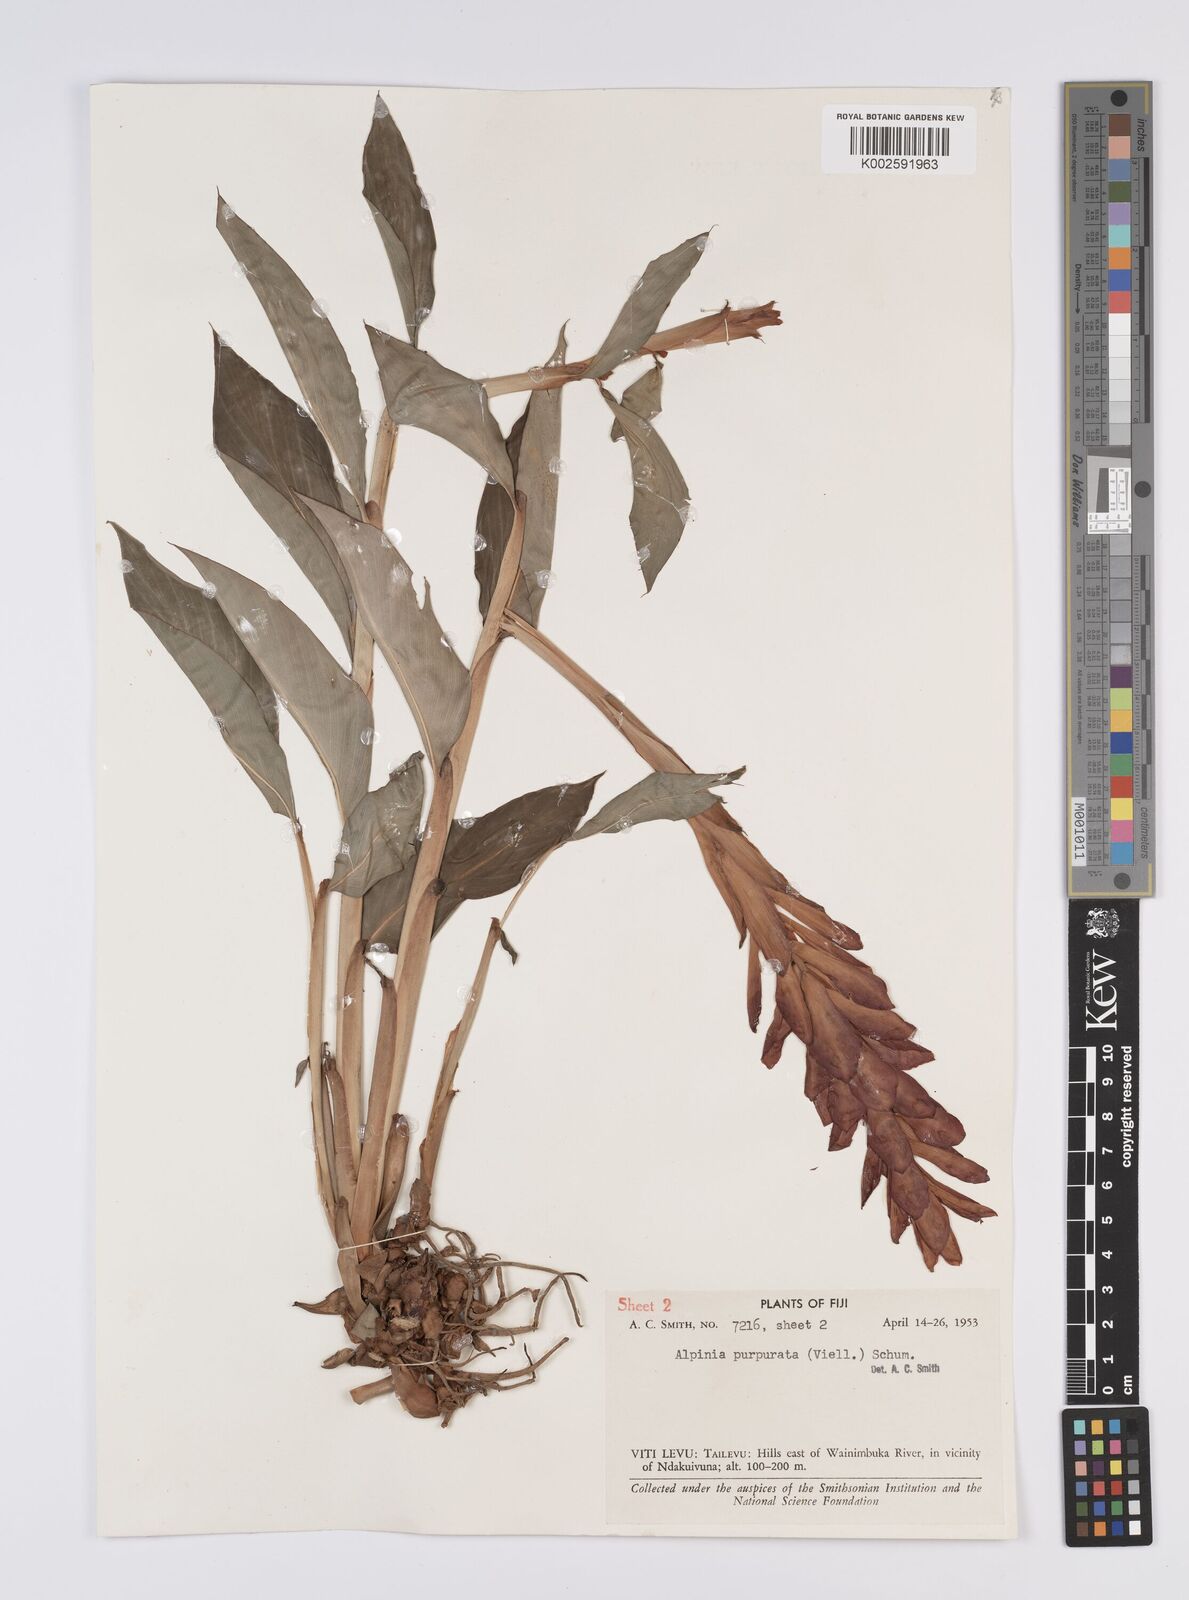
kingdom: Plantae
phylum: Tracheophyta
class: Liliopsida
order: Zingiberales
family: Zingiberaceae
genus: Alpinia
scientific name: Alpinia purpurata
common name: Red ginger
